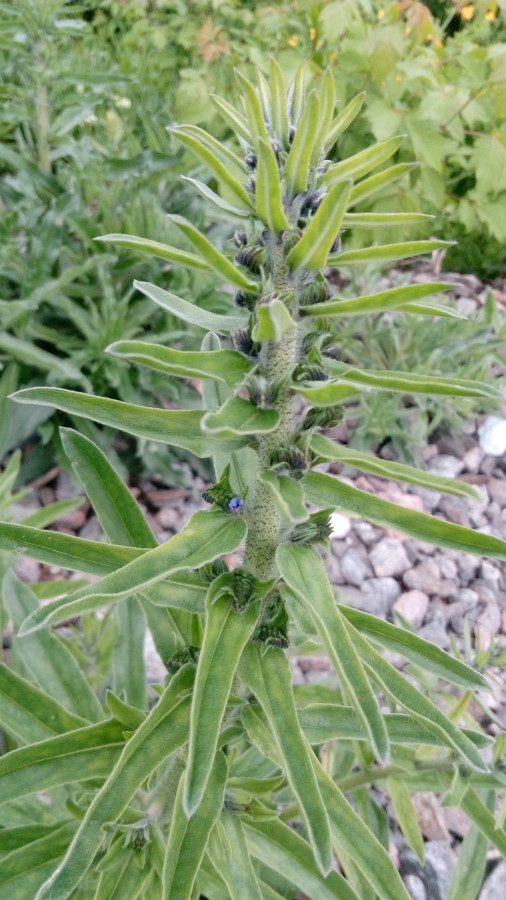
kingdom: Plantae
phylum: Tracheophyta
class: Magnoliopsida
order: Boraginales
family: Boraginaceae
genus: Echium
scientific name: Echium vulgare
